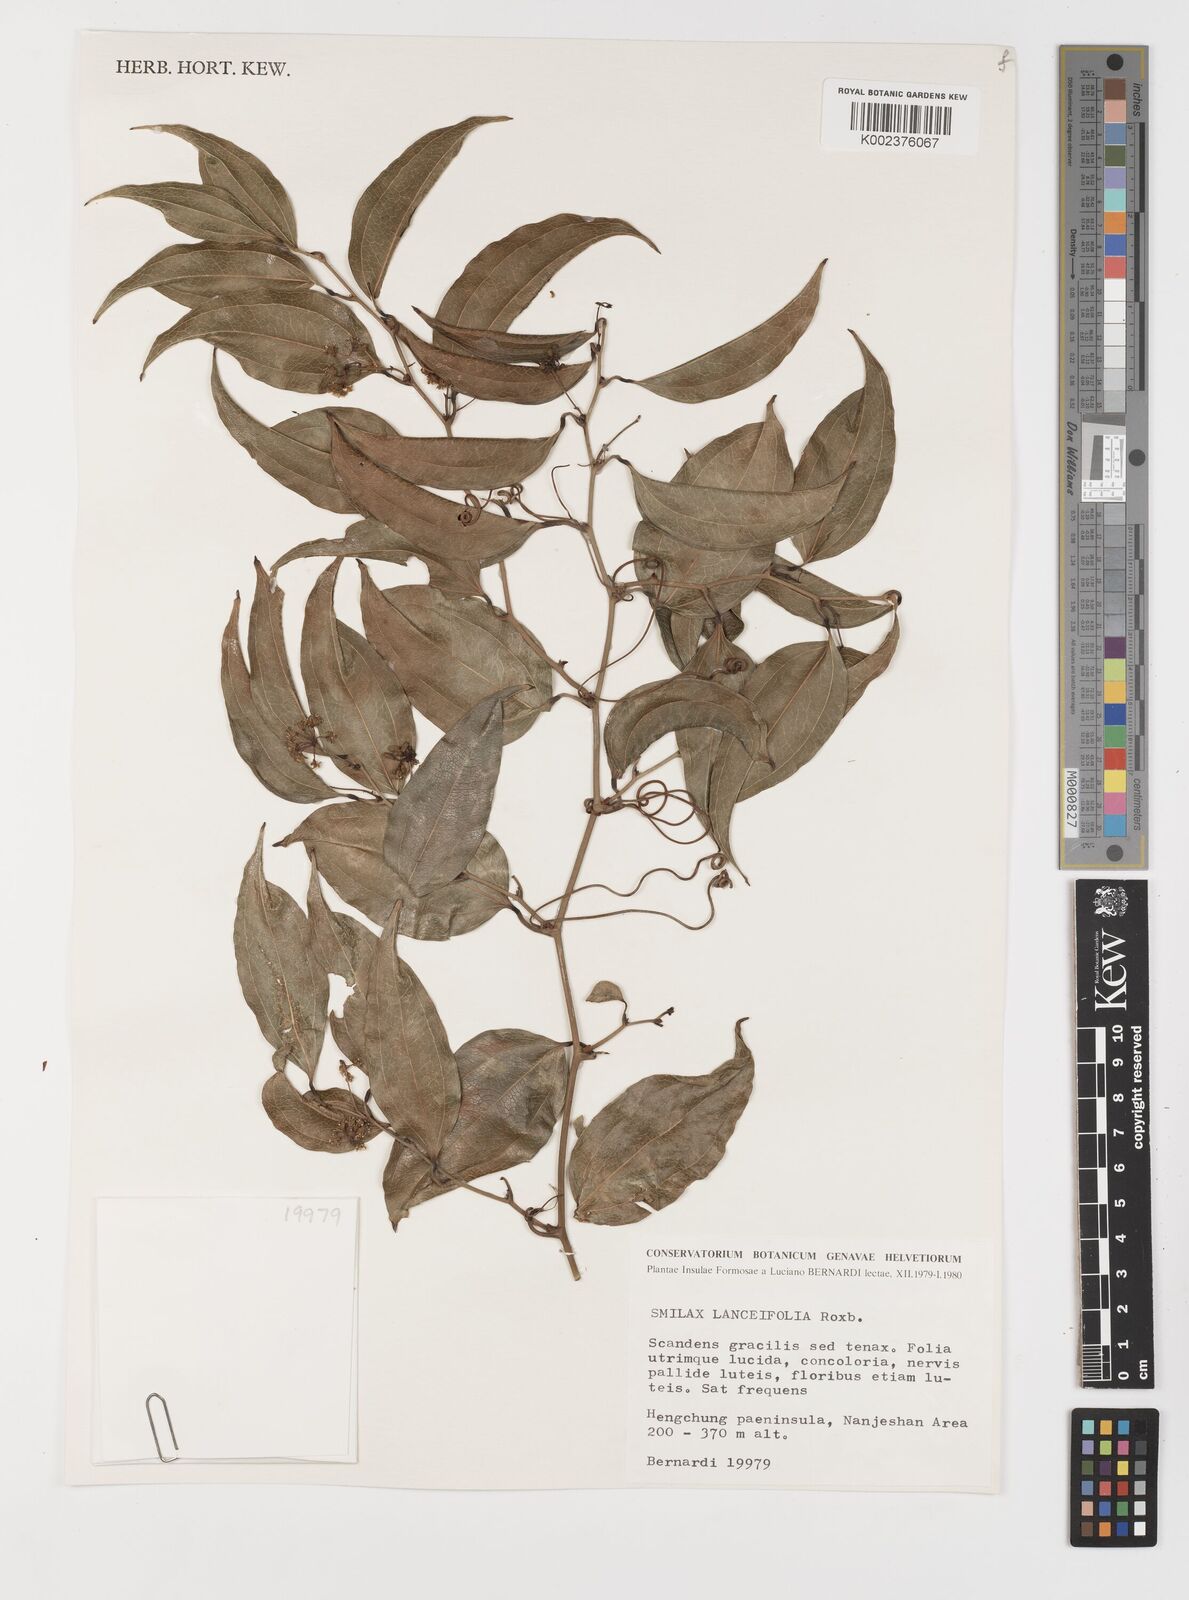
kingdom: Plantae
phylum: Tracheophyta
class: Liliopsida
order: Liliales
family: Smilacaceae
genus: Smilax
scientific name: Smilax lanceifolia
